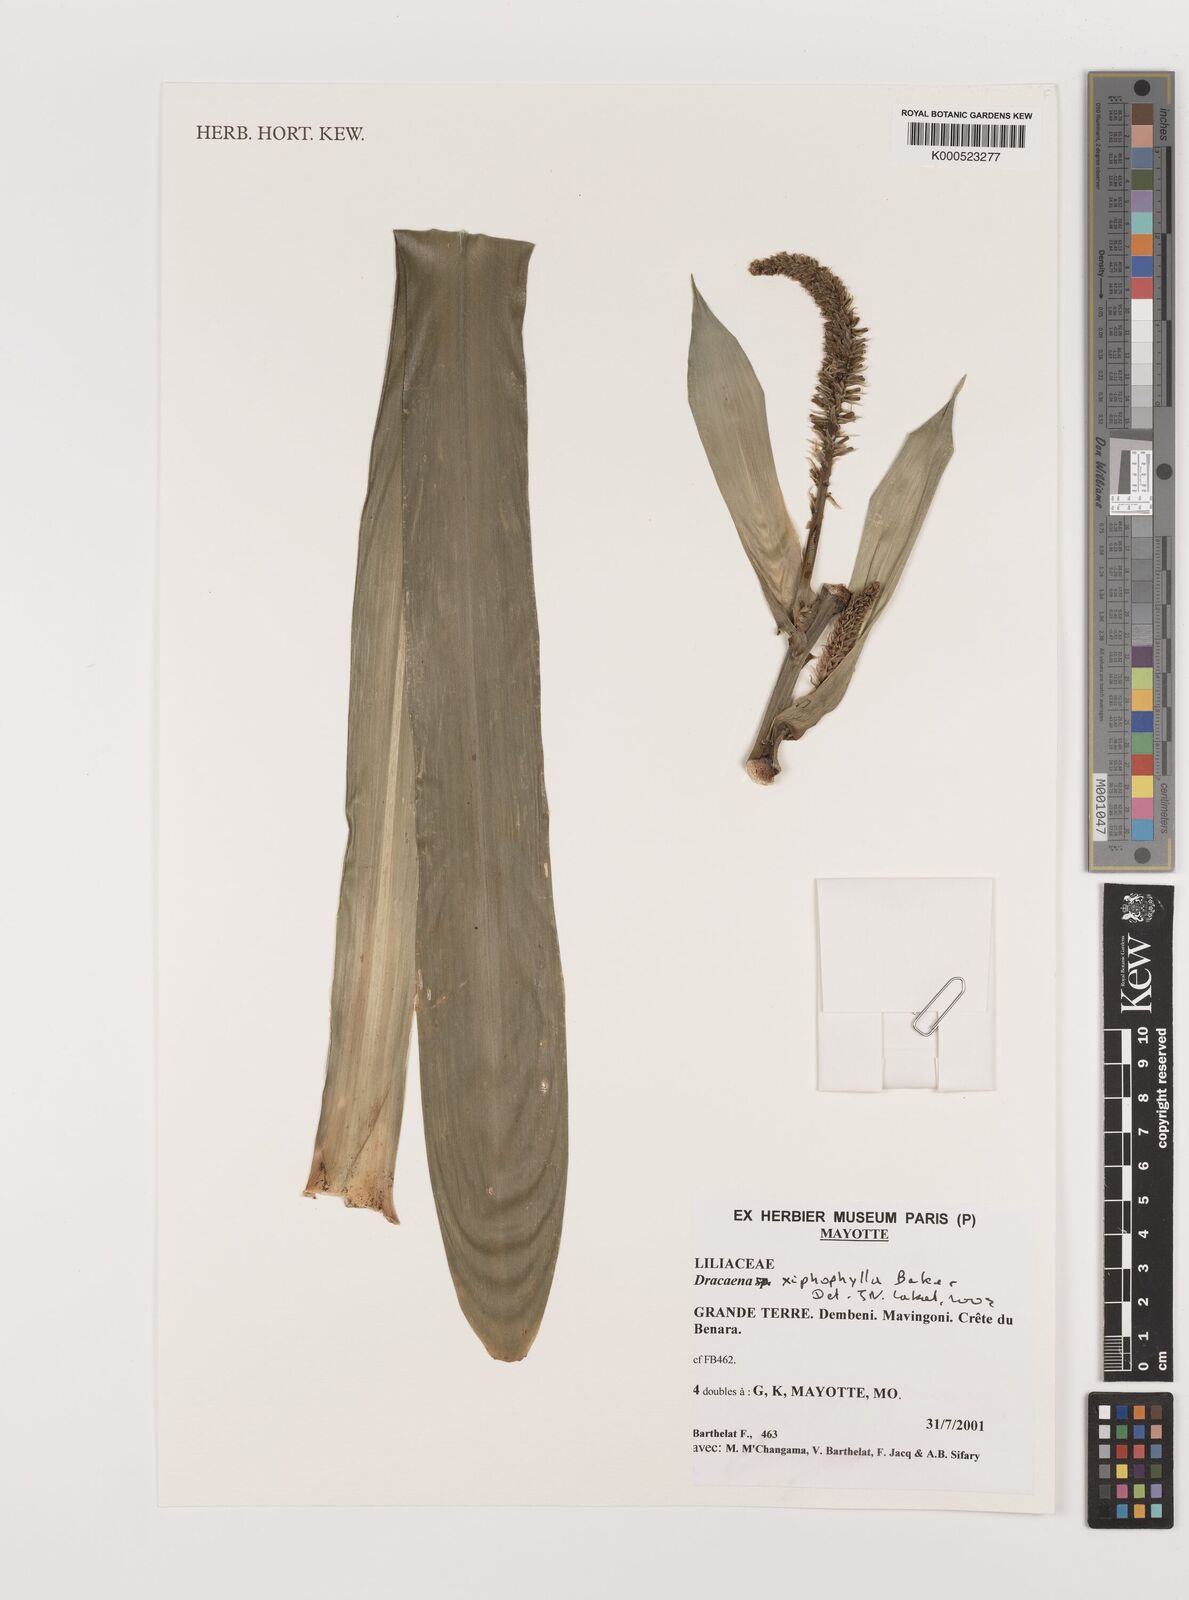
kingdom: Plantae
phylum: Tracheophyta
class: Liliopsida
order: Asparagales
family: Asparagaceae
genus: Dracaena
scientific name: Dracaena xiphophylla
